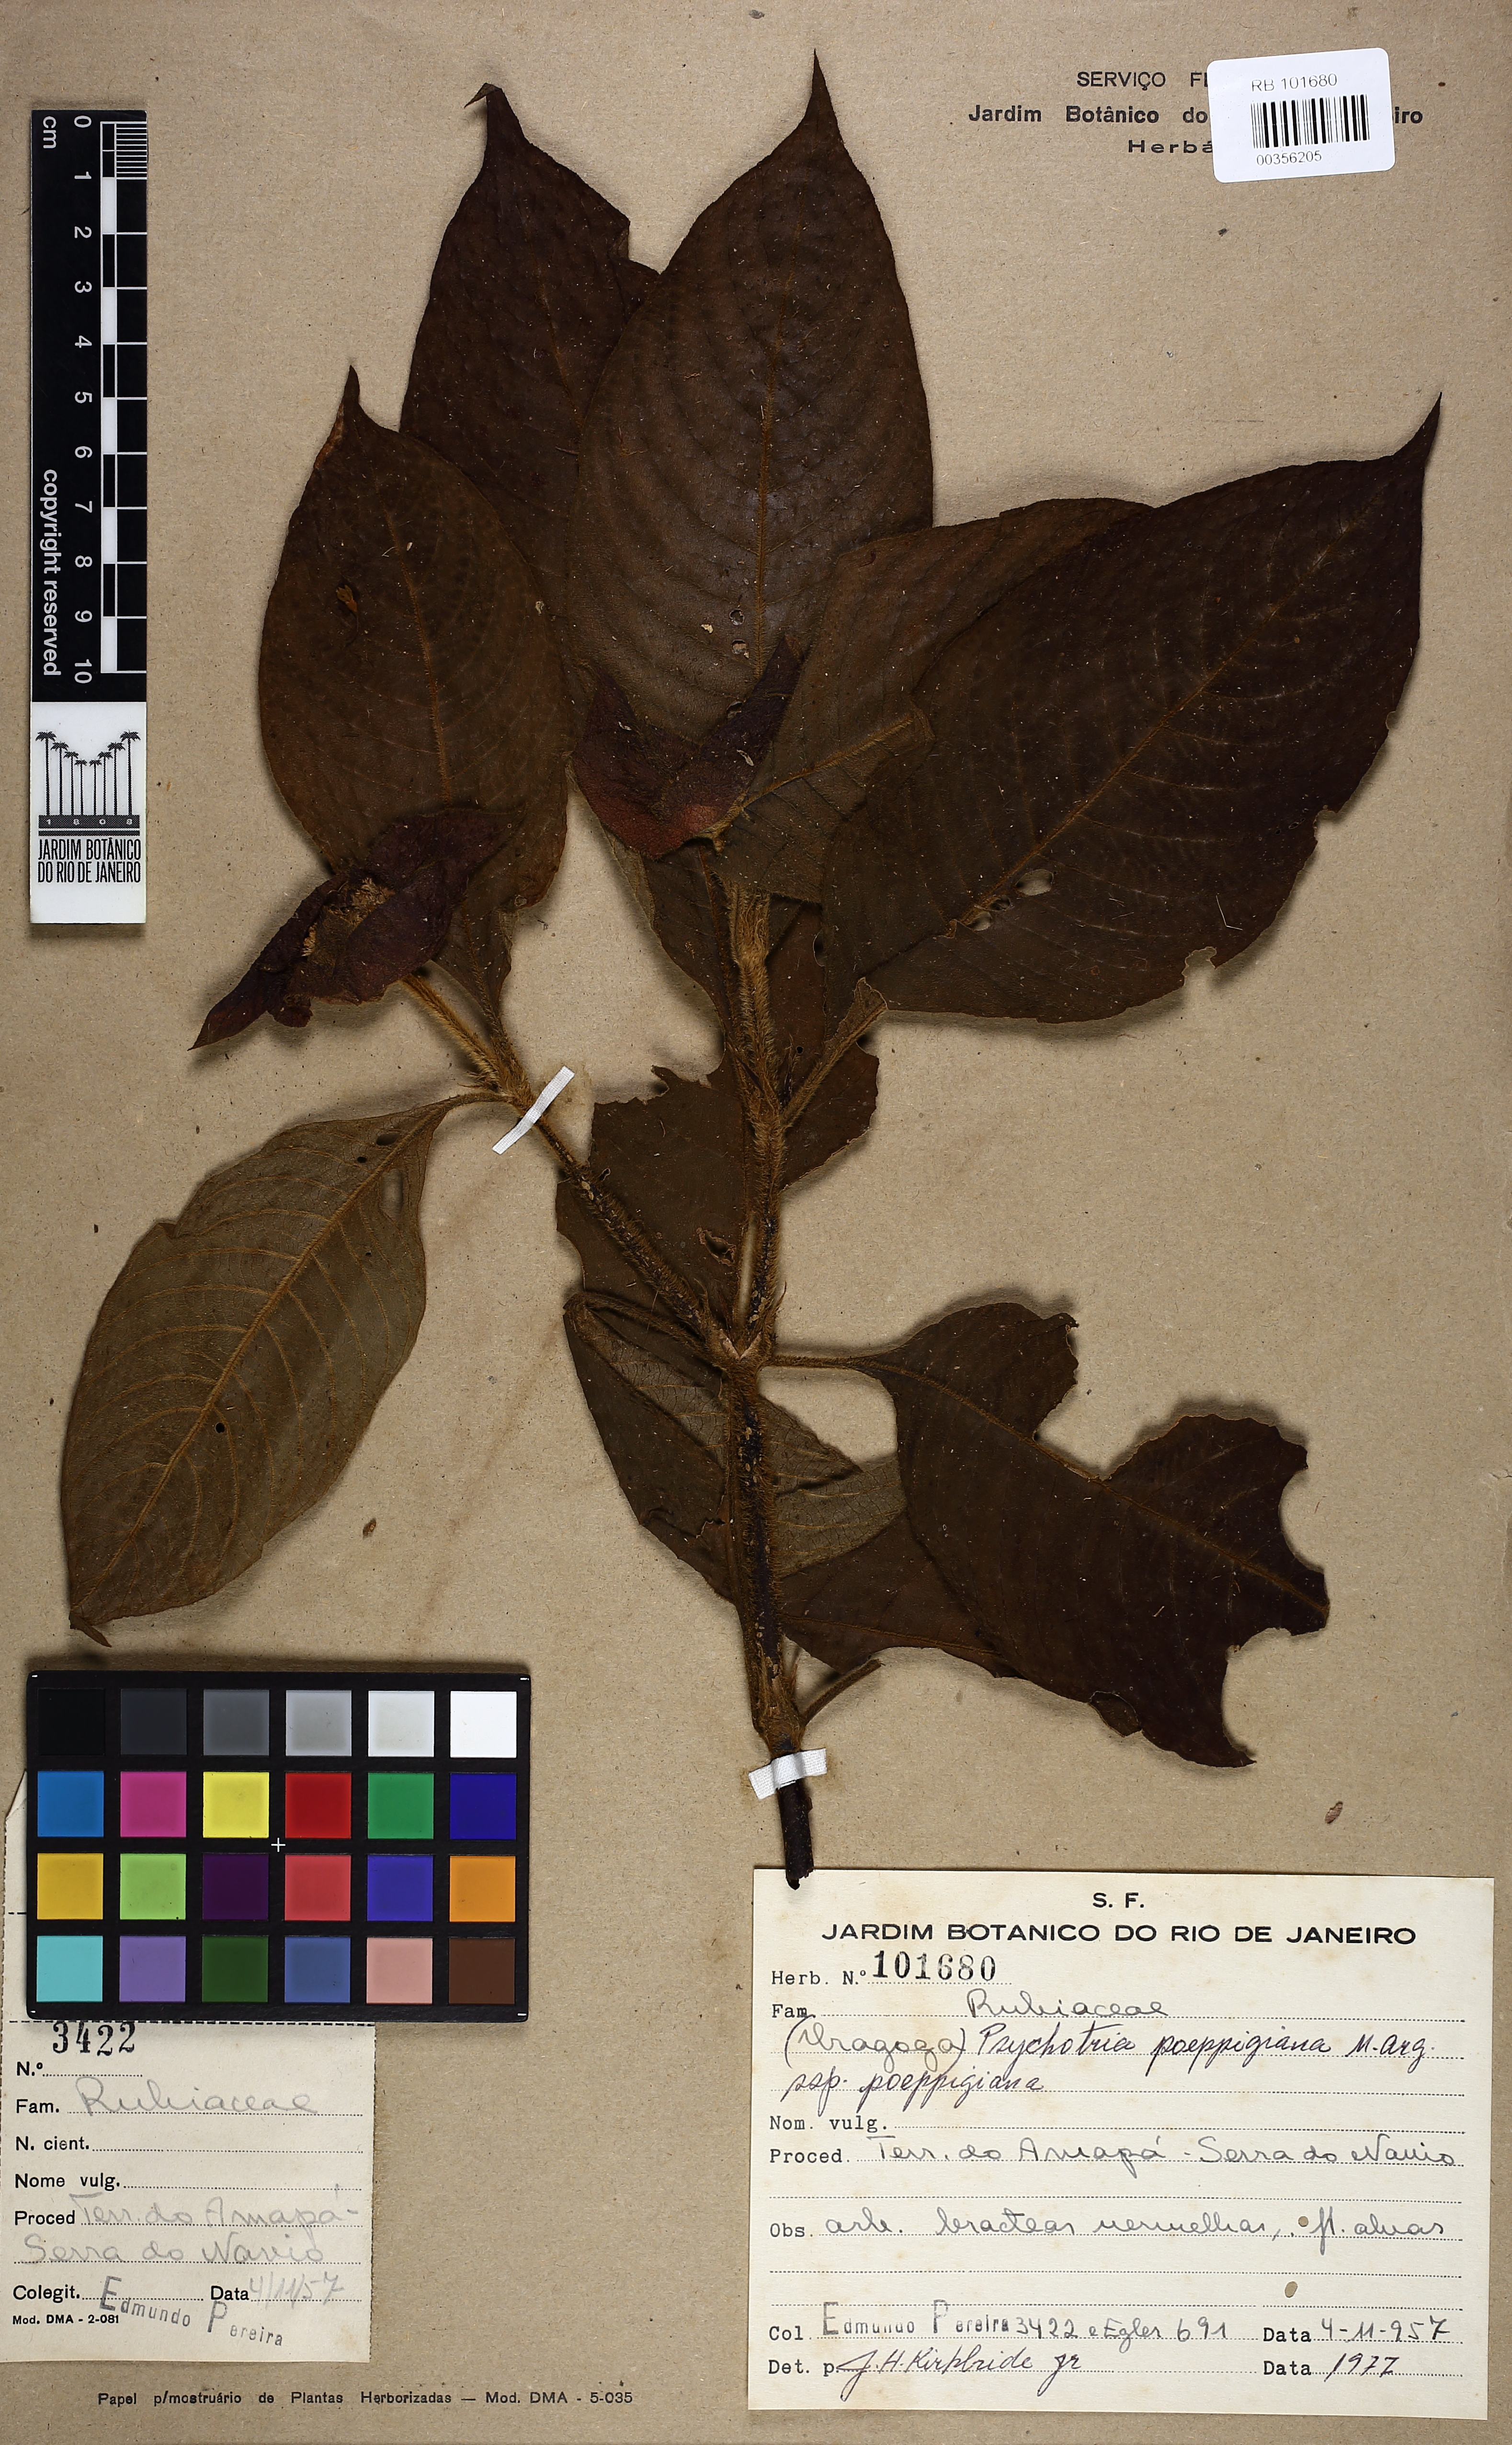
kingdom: Plantae
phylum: Tracheophyta
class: Magnoliopsida
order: Gentianales
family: Rubiaceae
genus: Palicourea
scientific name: Palicourea tomentosa
